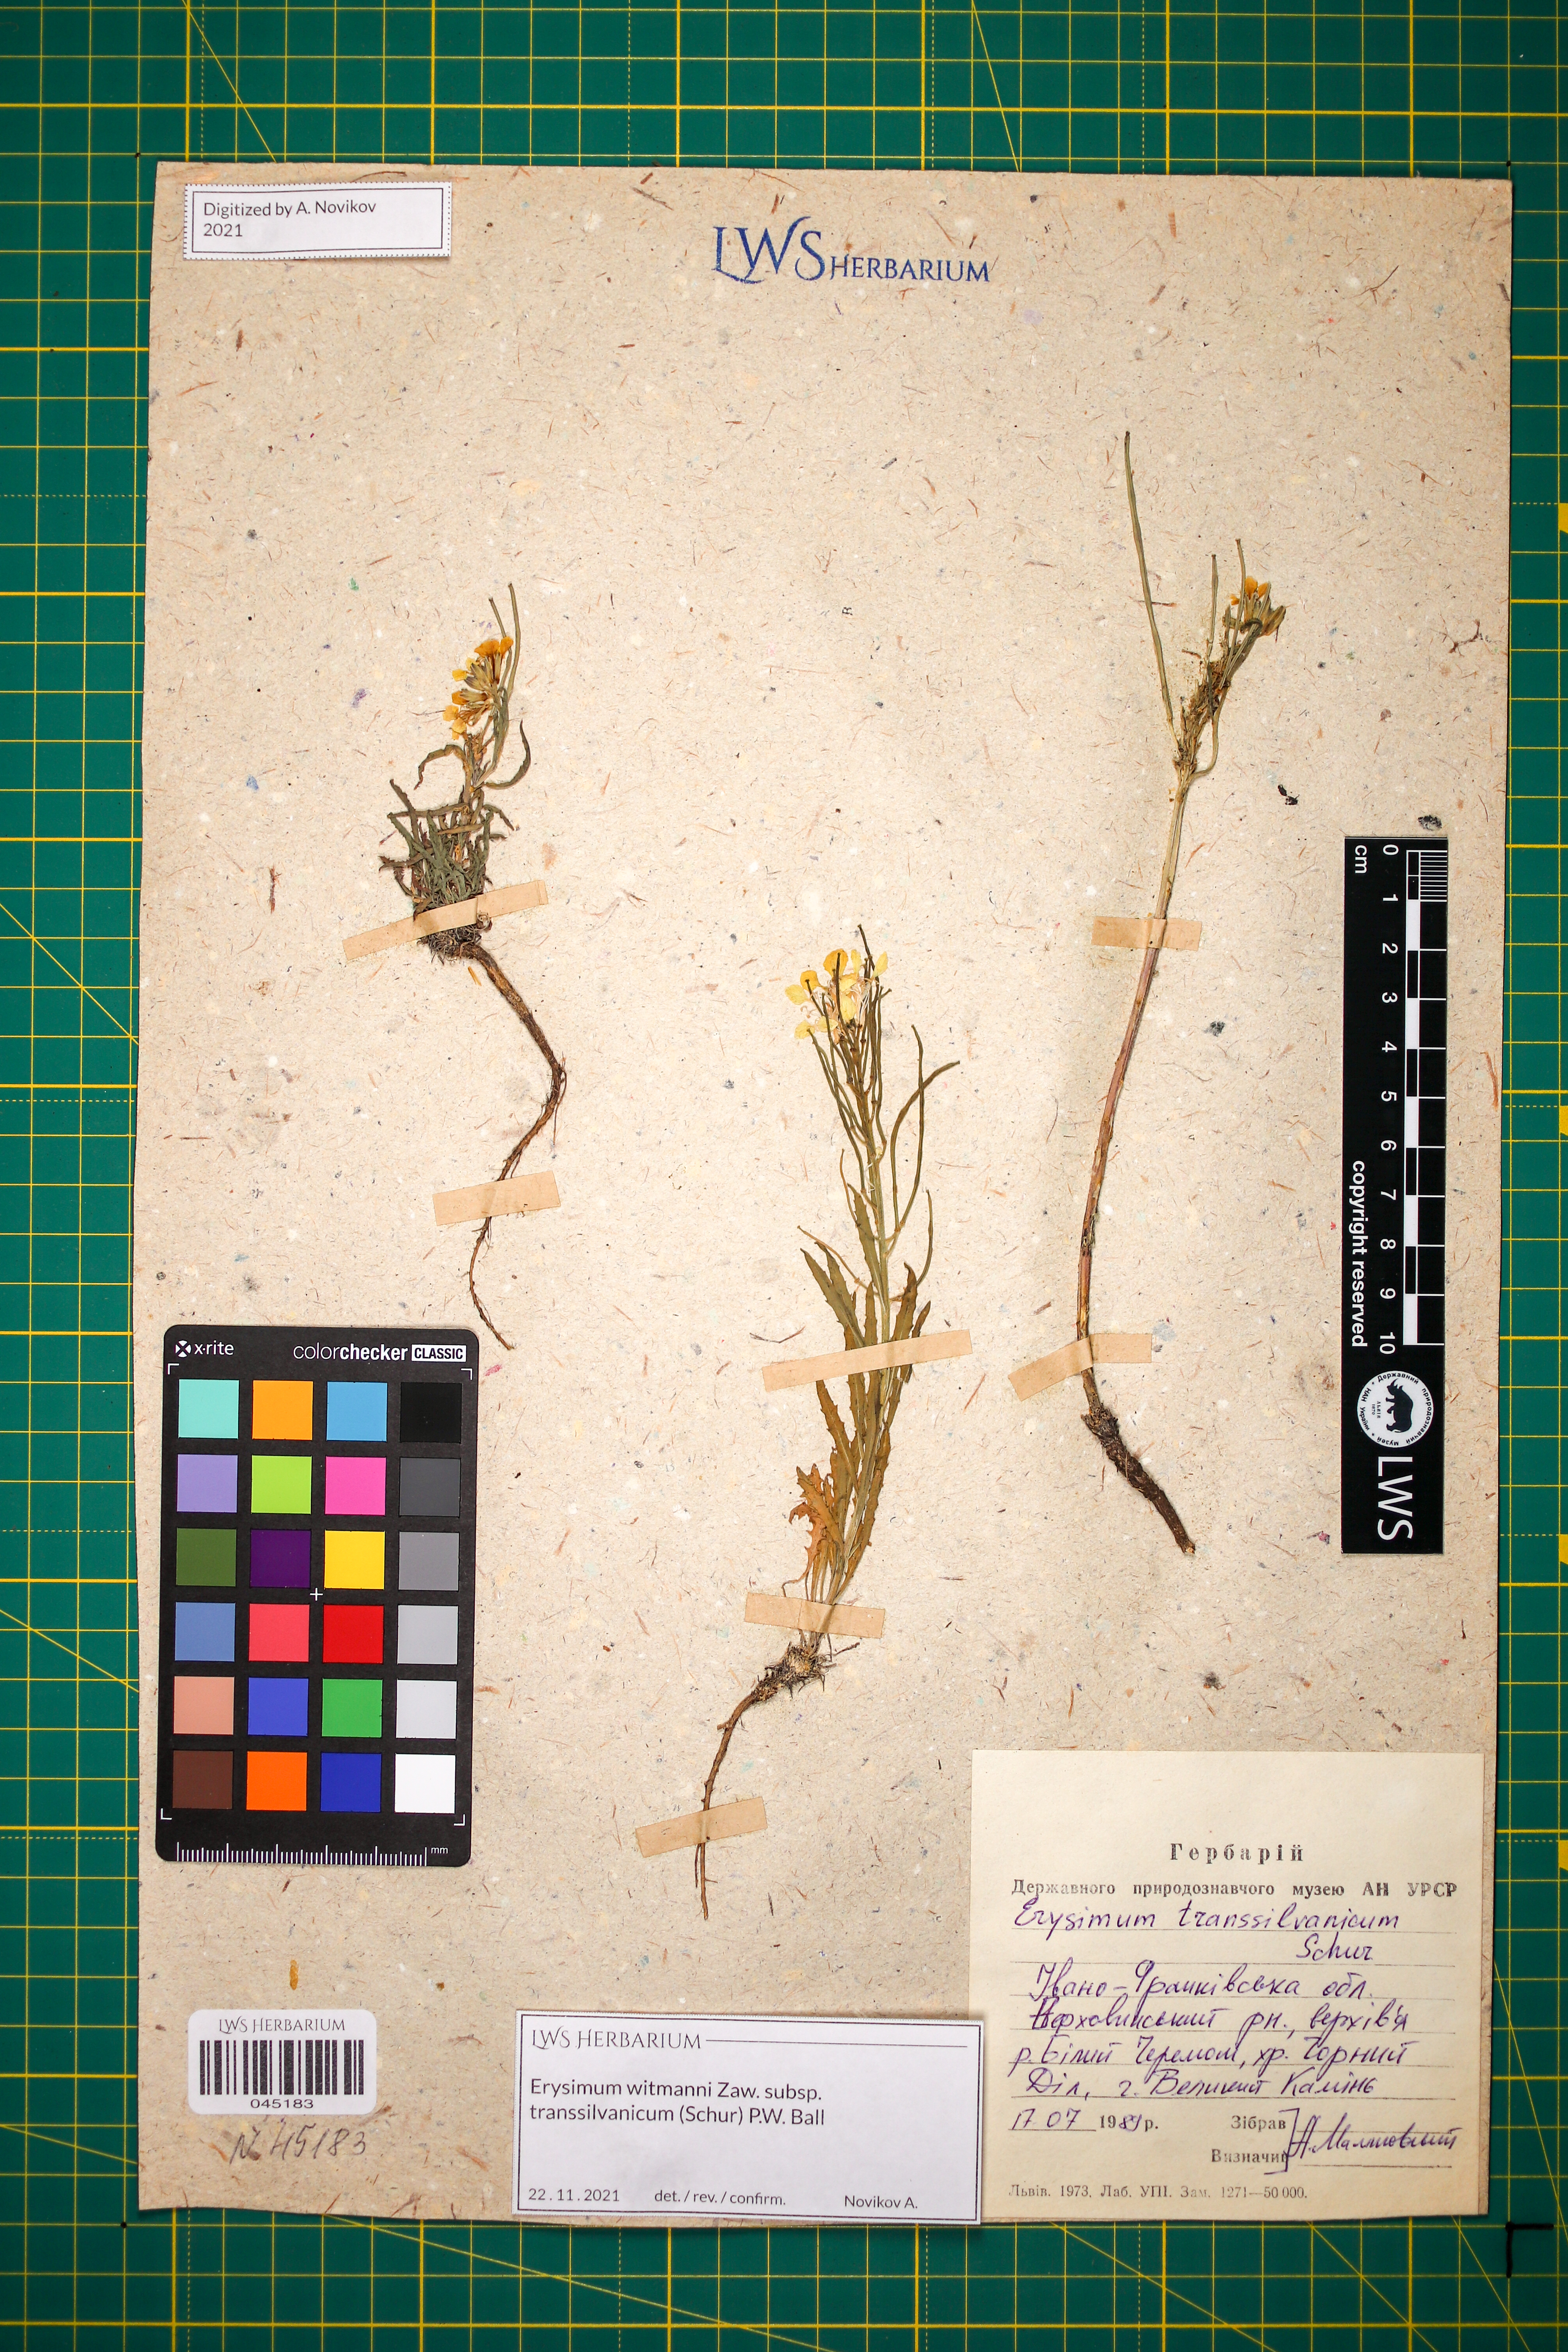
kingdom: Plantae
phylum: Tracheophyta
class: Magnoliopsida
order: Brassicales
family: Brassicaceae
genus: Erysimum
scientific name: Erysimum transsilvanicum
